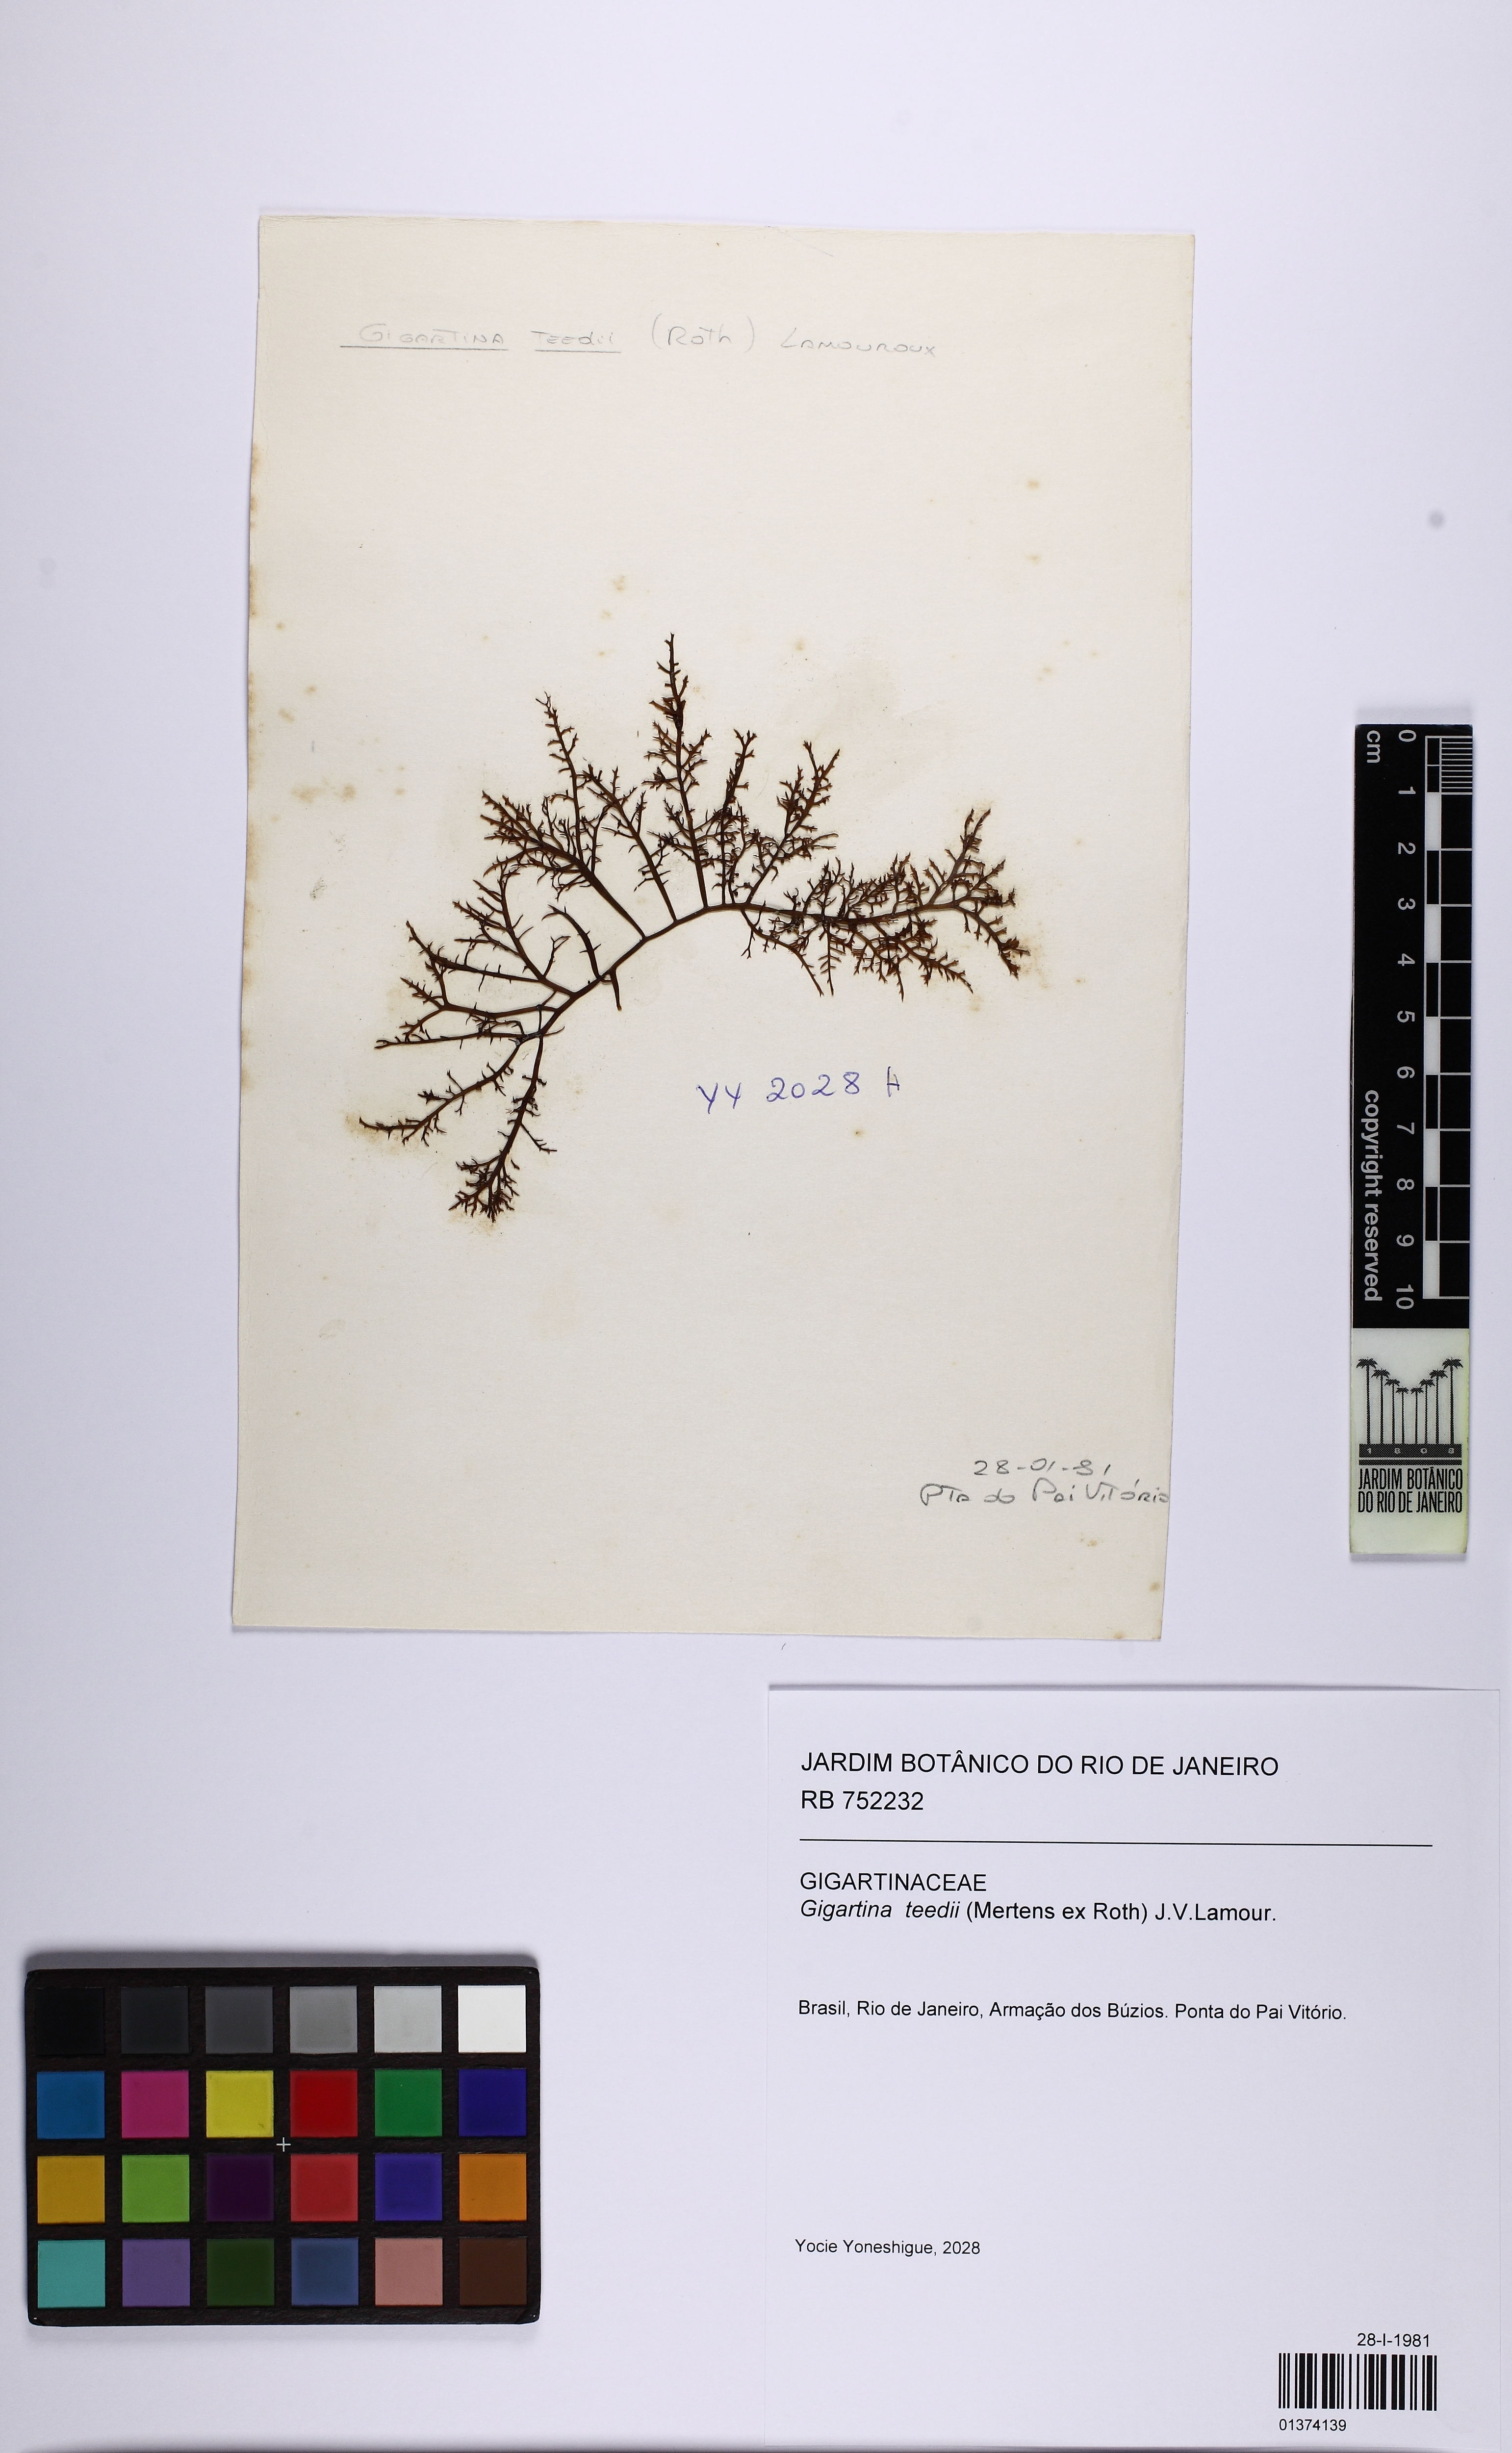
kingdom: Plantae
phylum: Rhodophyta
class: Florideophyceae
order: Gigartinales
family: Gigartinaceae
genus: Chondracanthus
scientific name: Chondracanthus teedei
